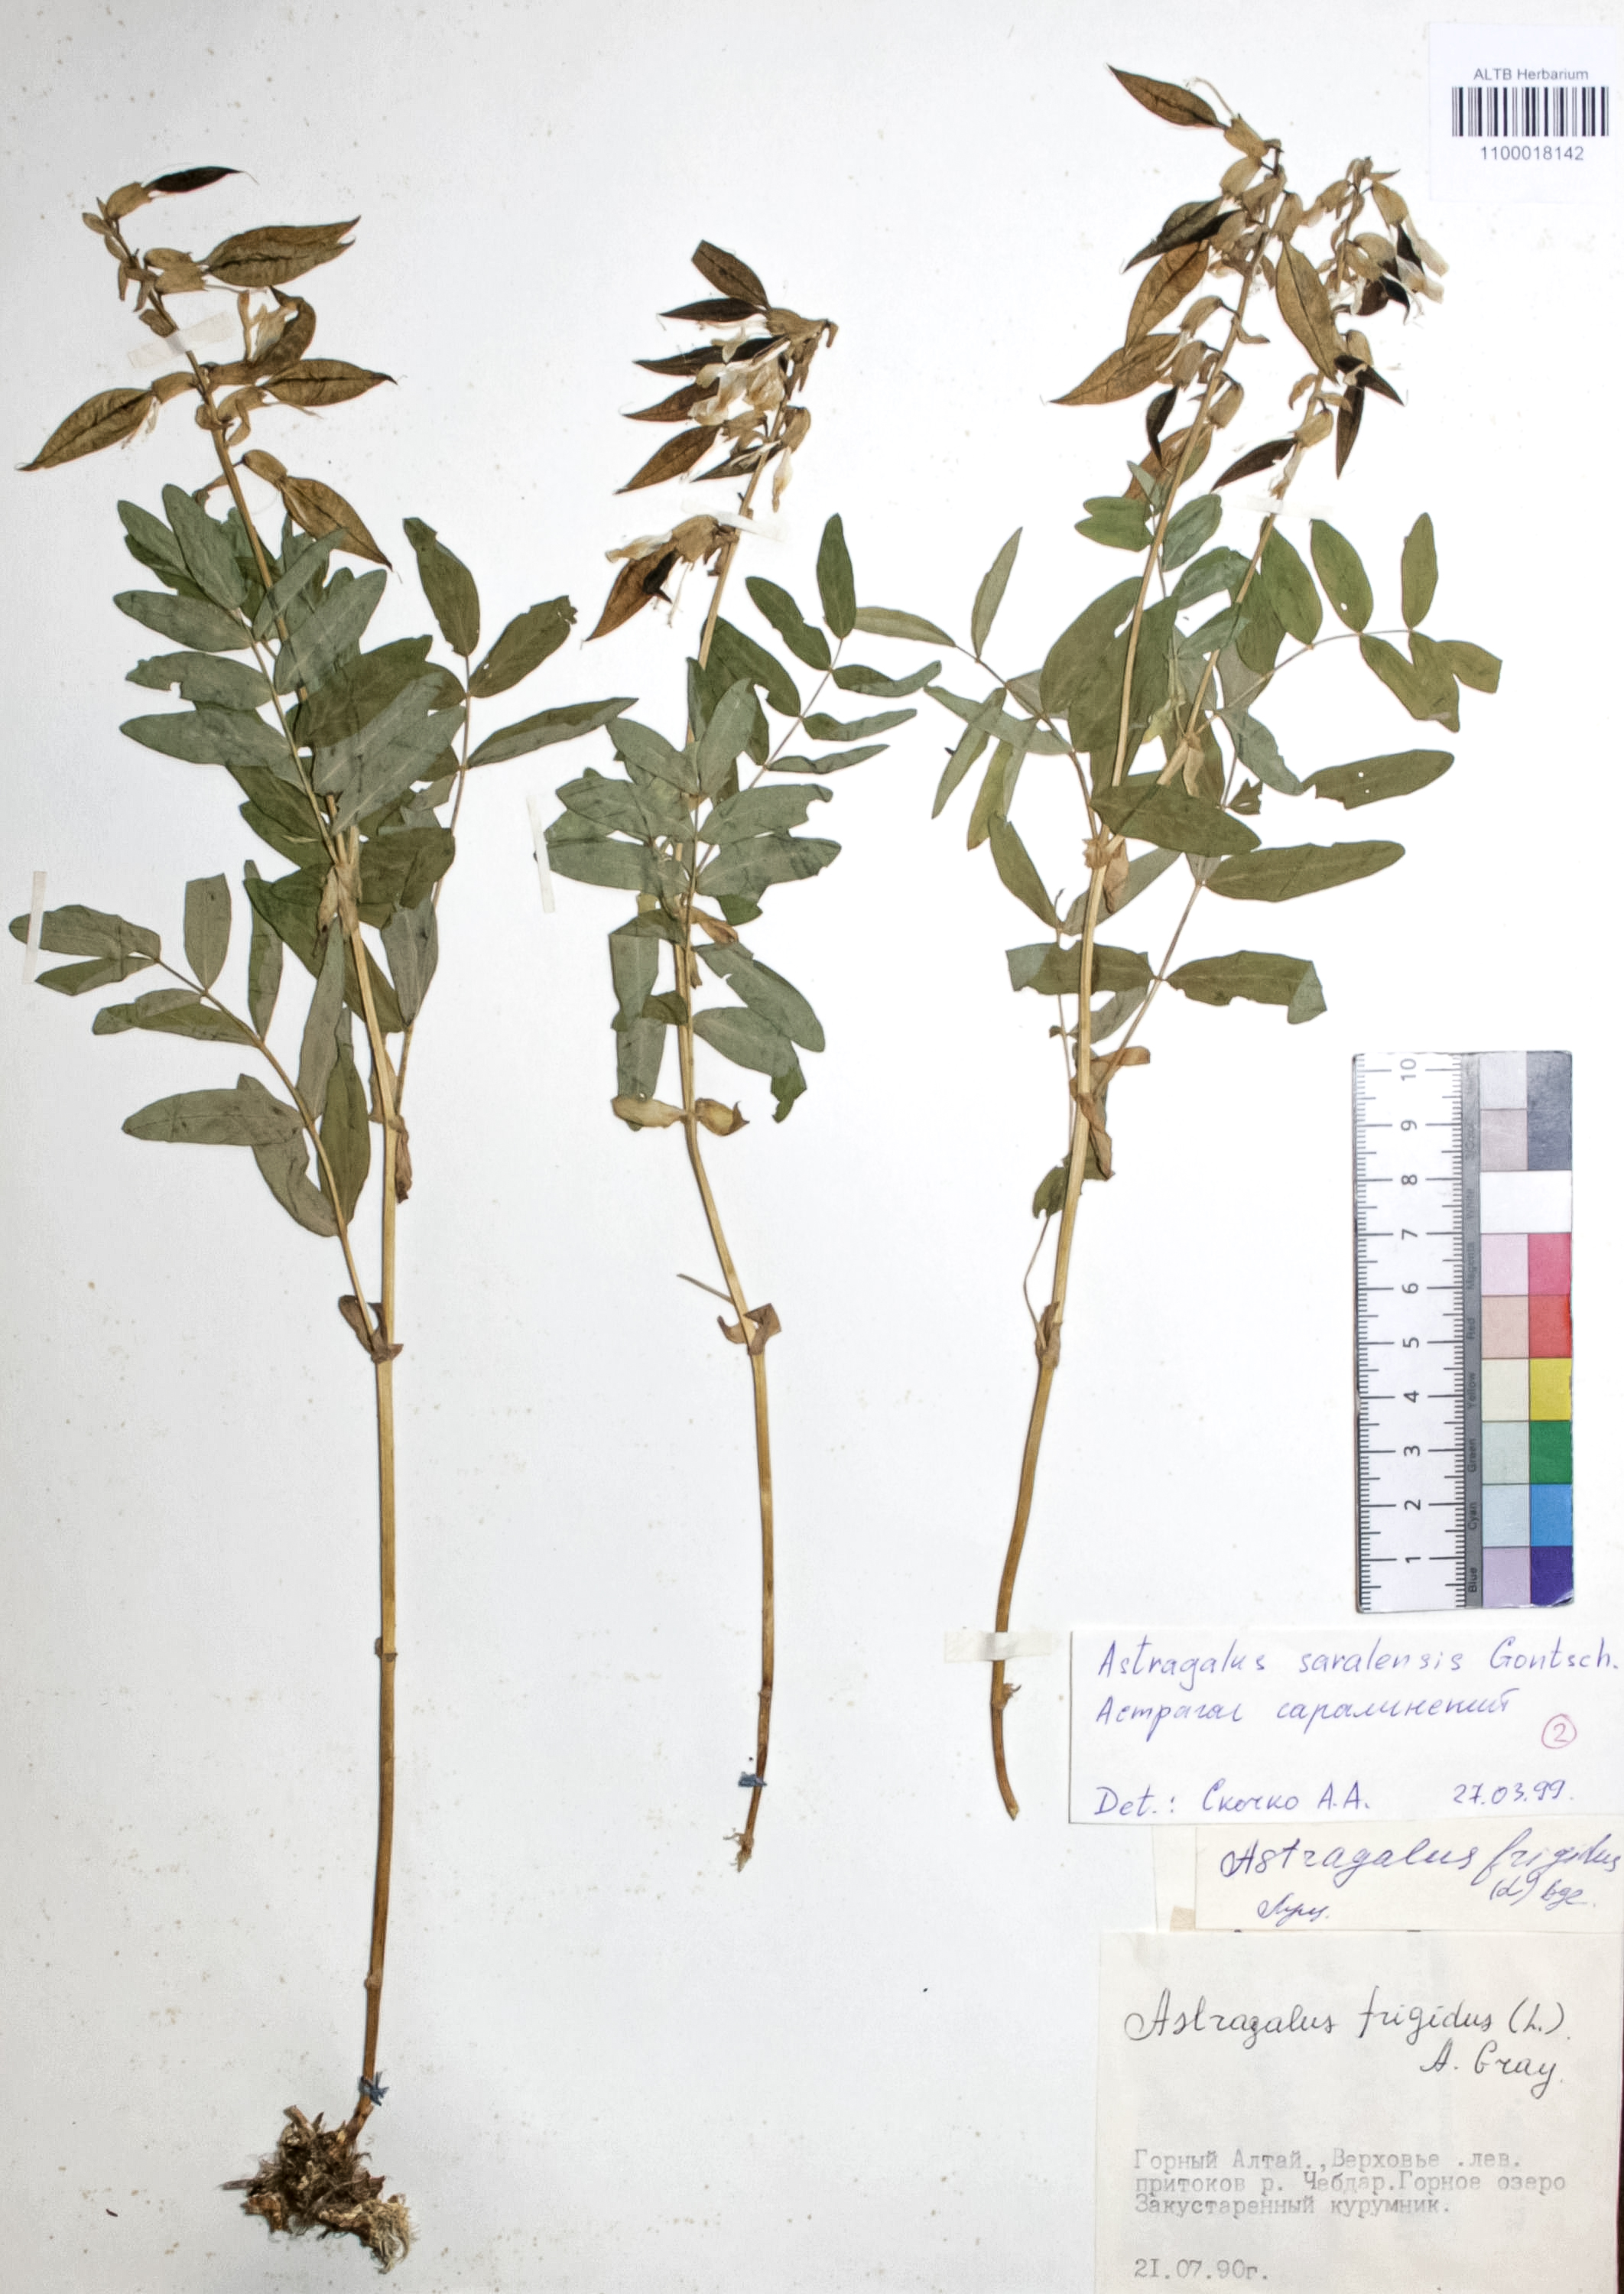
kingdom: Plantae
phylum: Tracheophyta
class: Magnoliopsida
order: Fabales
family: Fabaceae
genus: Astragalus
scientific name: Astragalus frigidus
